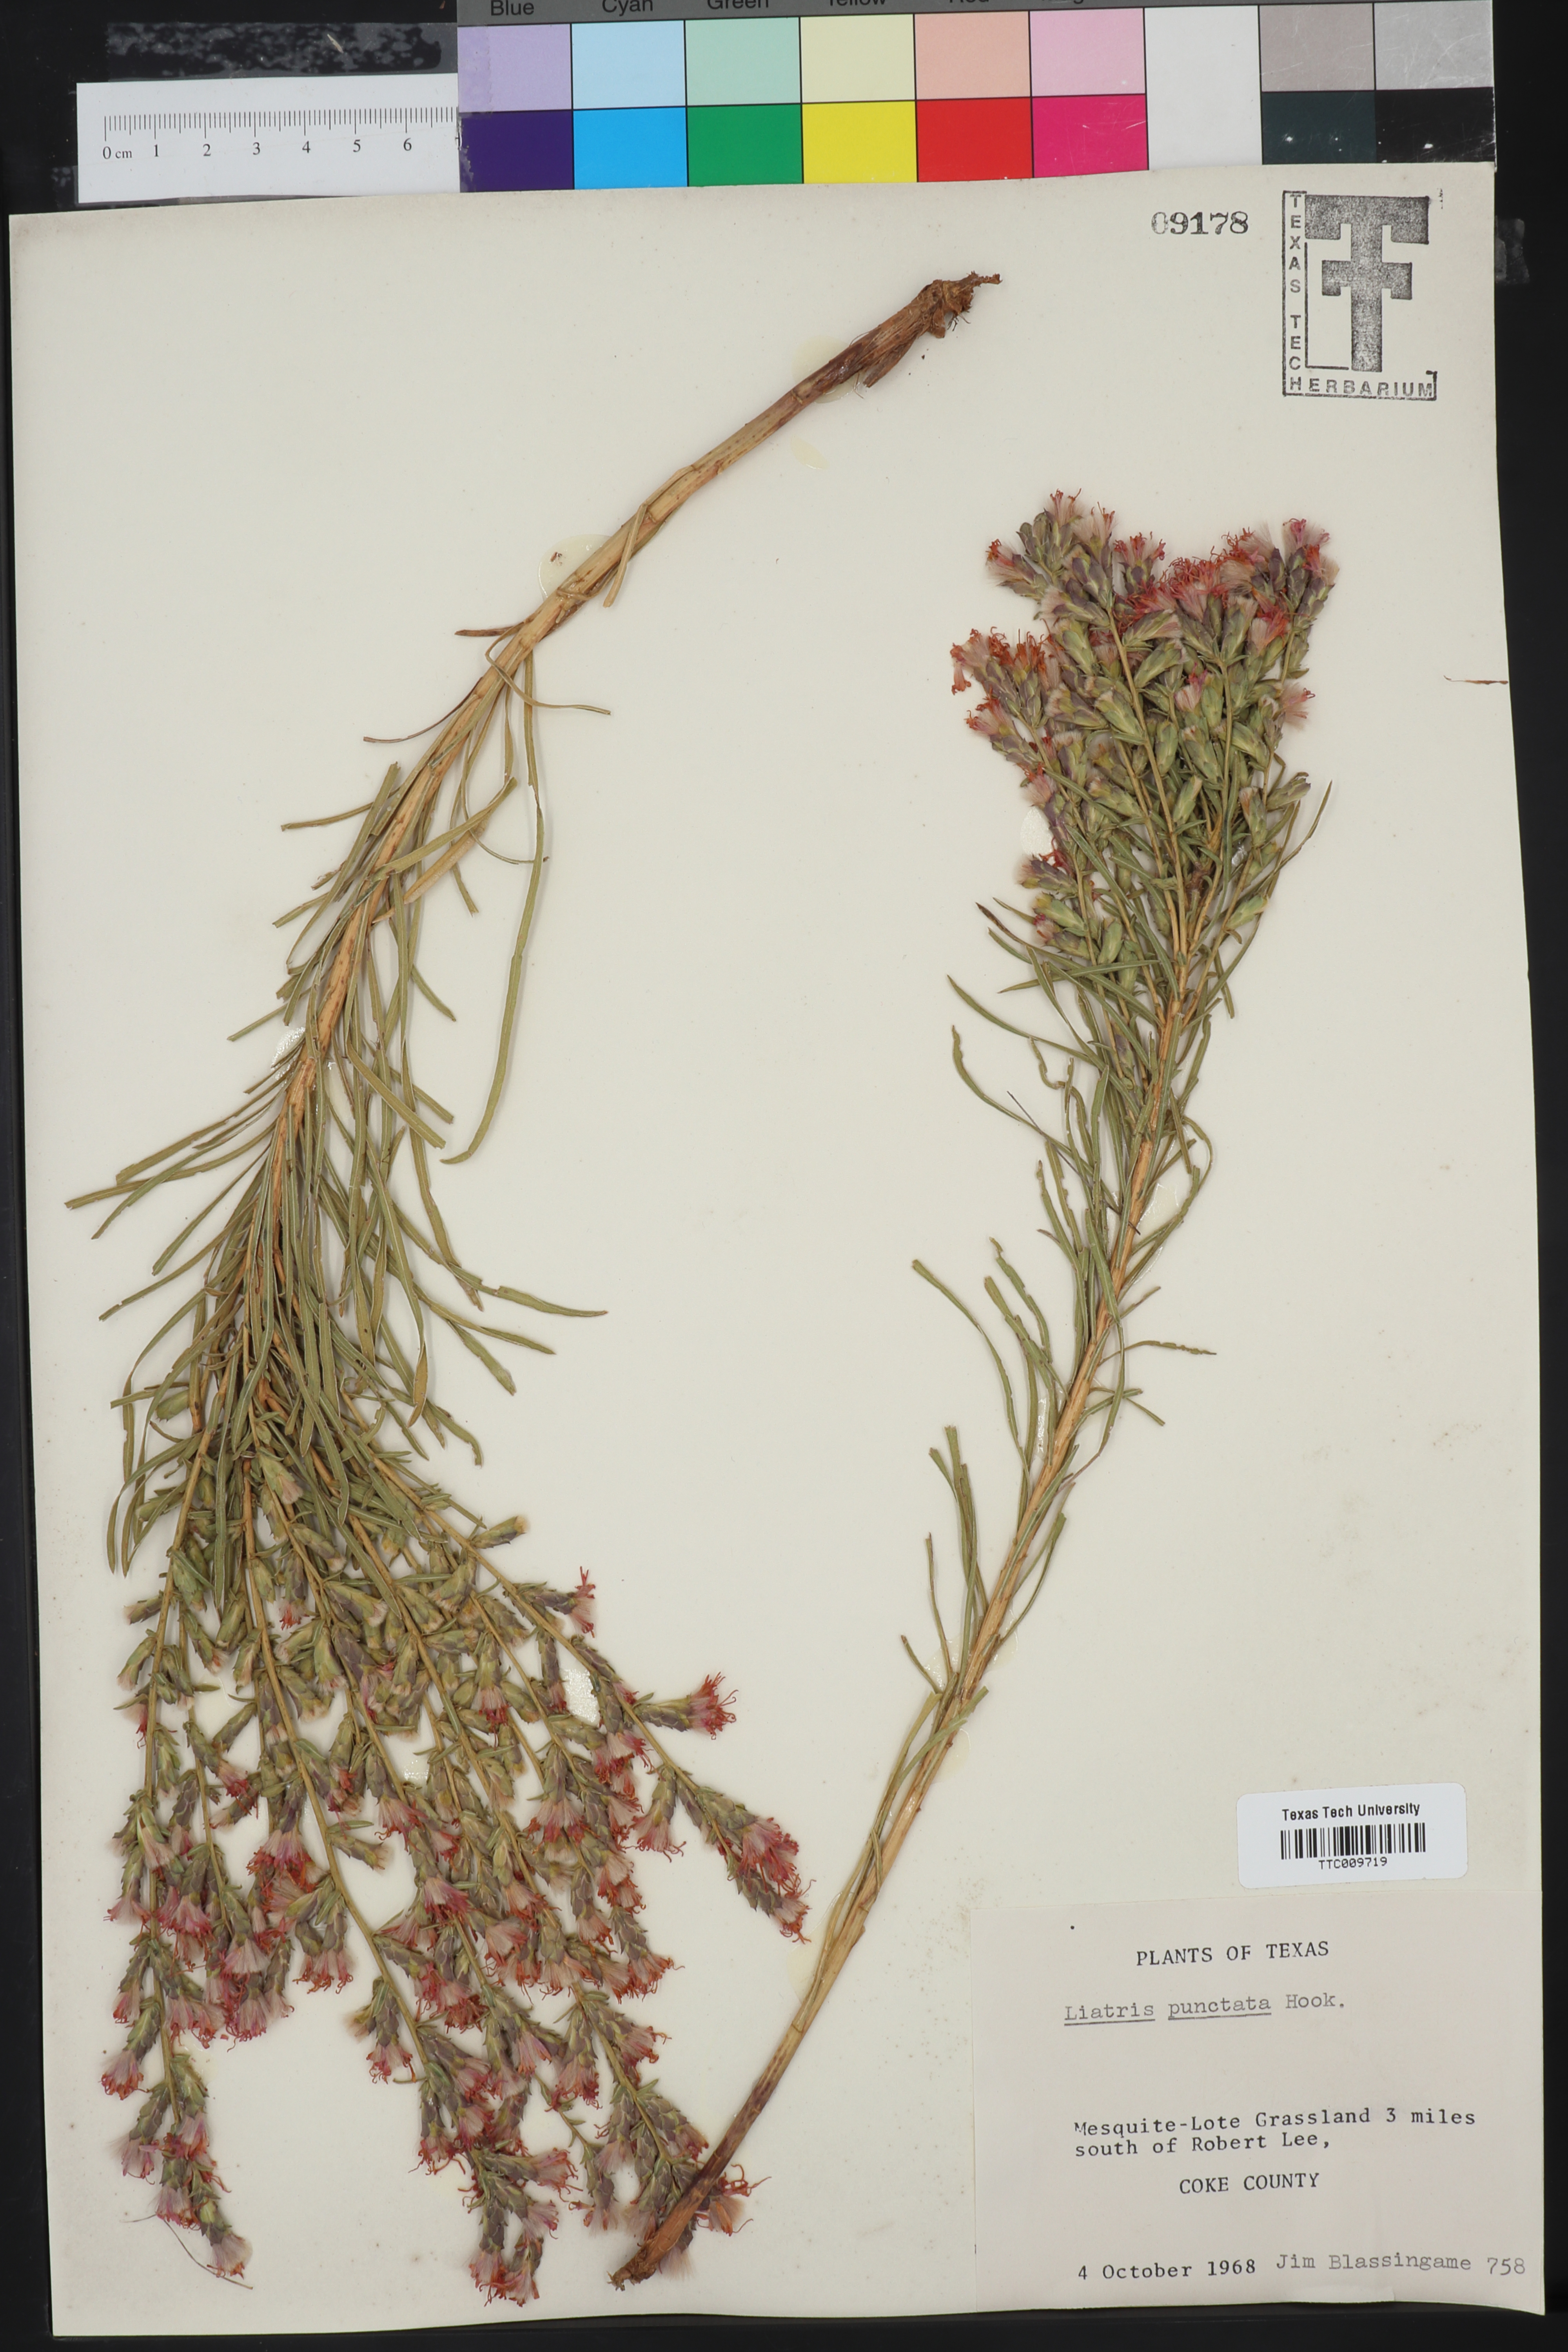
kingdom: Plantae
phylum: Tracheophyta
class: Magnoliopsida
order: Asterales
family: Asteraceae
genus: Liatris
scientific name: Liatris punctata
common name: Dotted gayfeather
